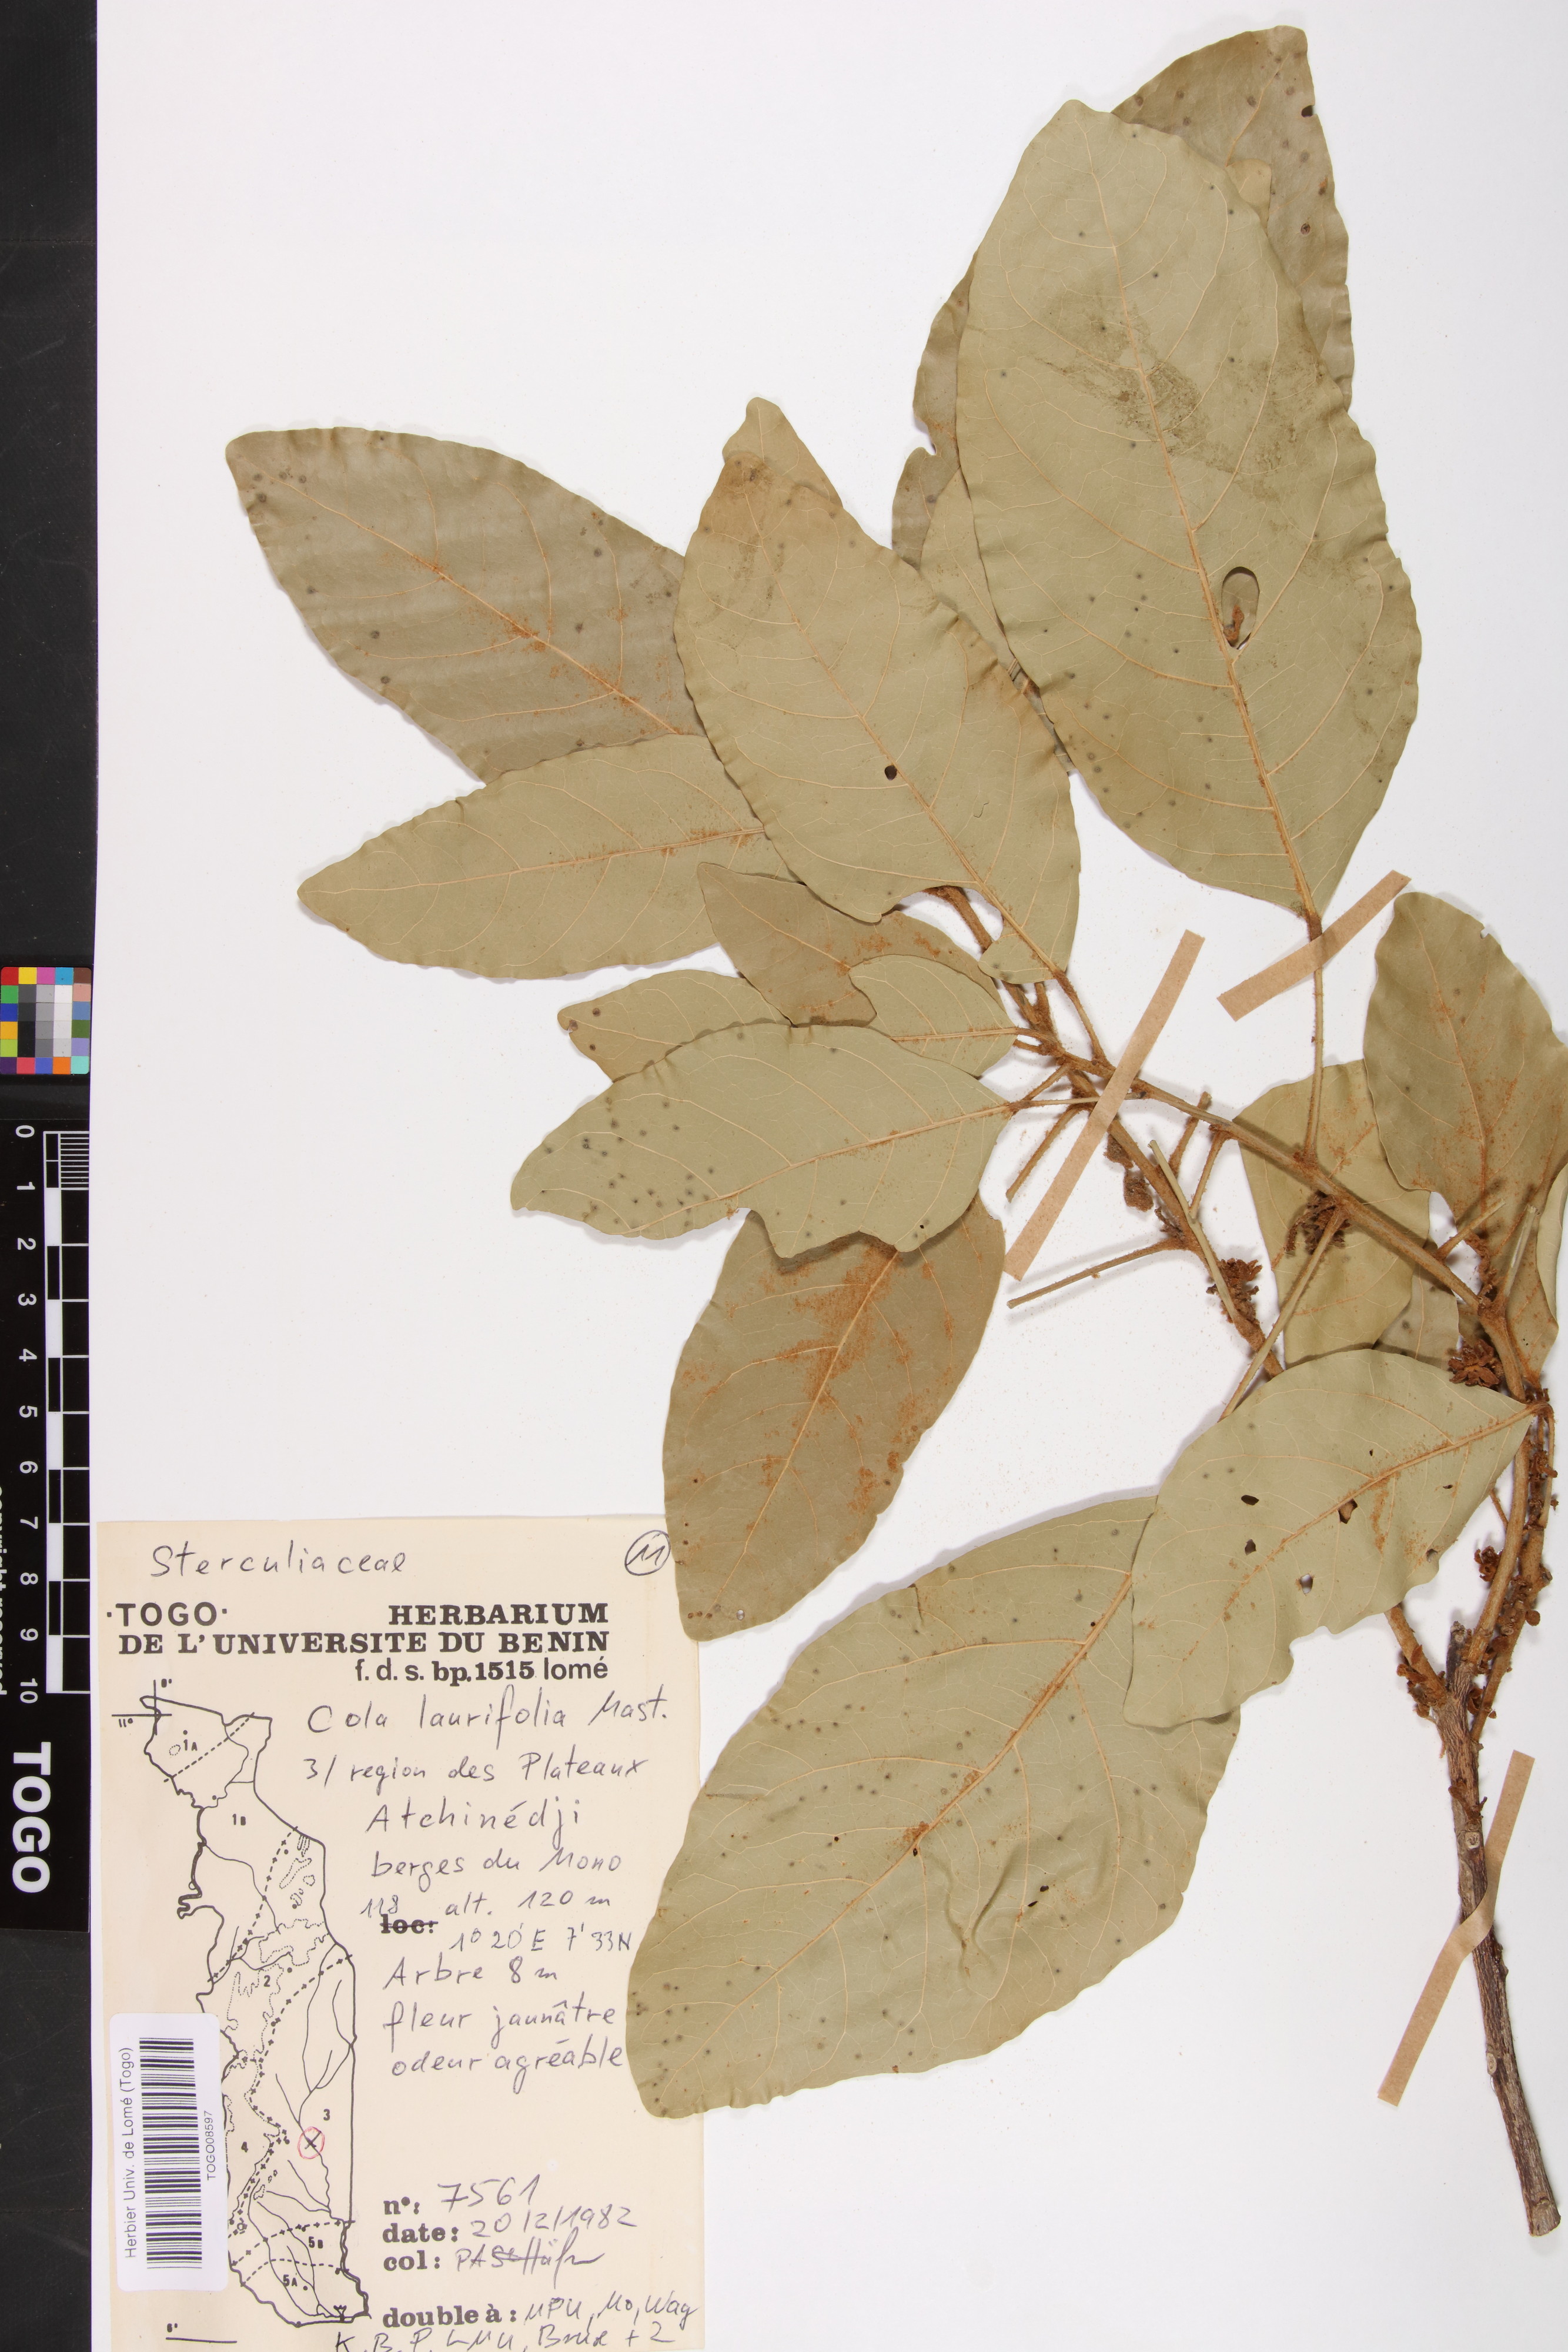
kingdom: Plantae
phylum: Tracheophyta
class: Magnoliopsida
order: Malvales
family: Malvaceae
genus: Cola
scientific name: Cola laurifolia
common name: Laurel-leaved kola
